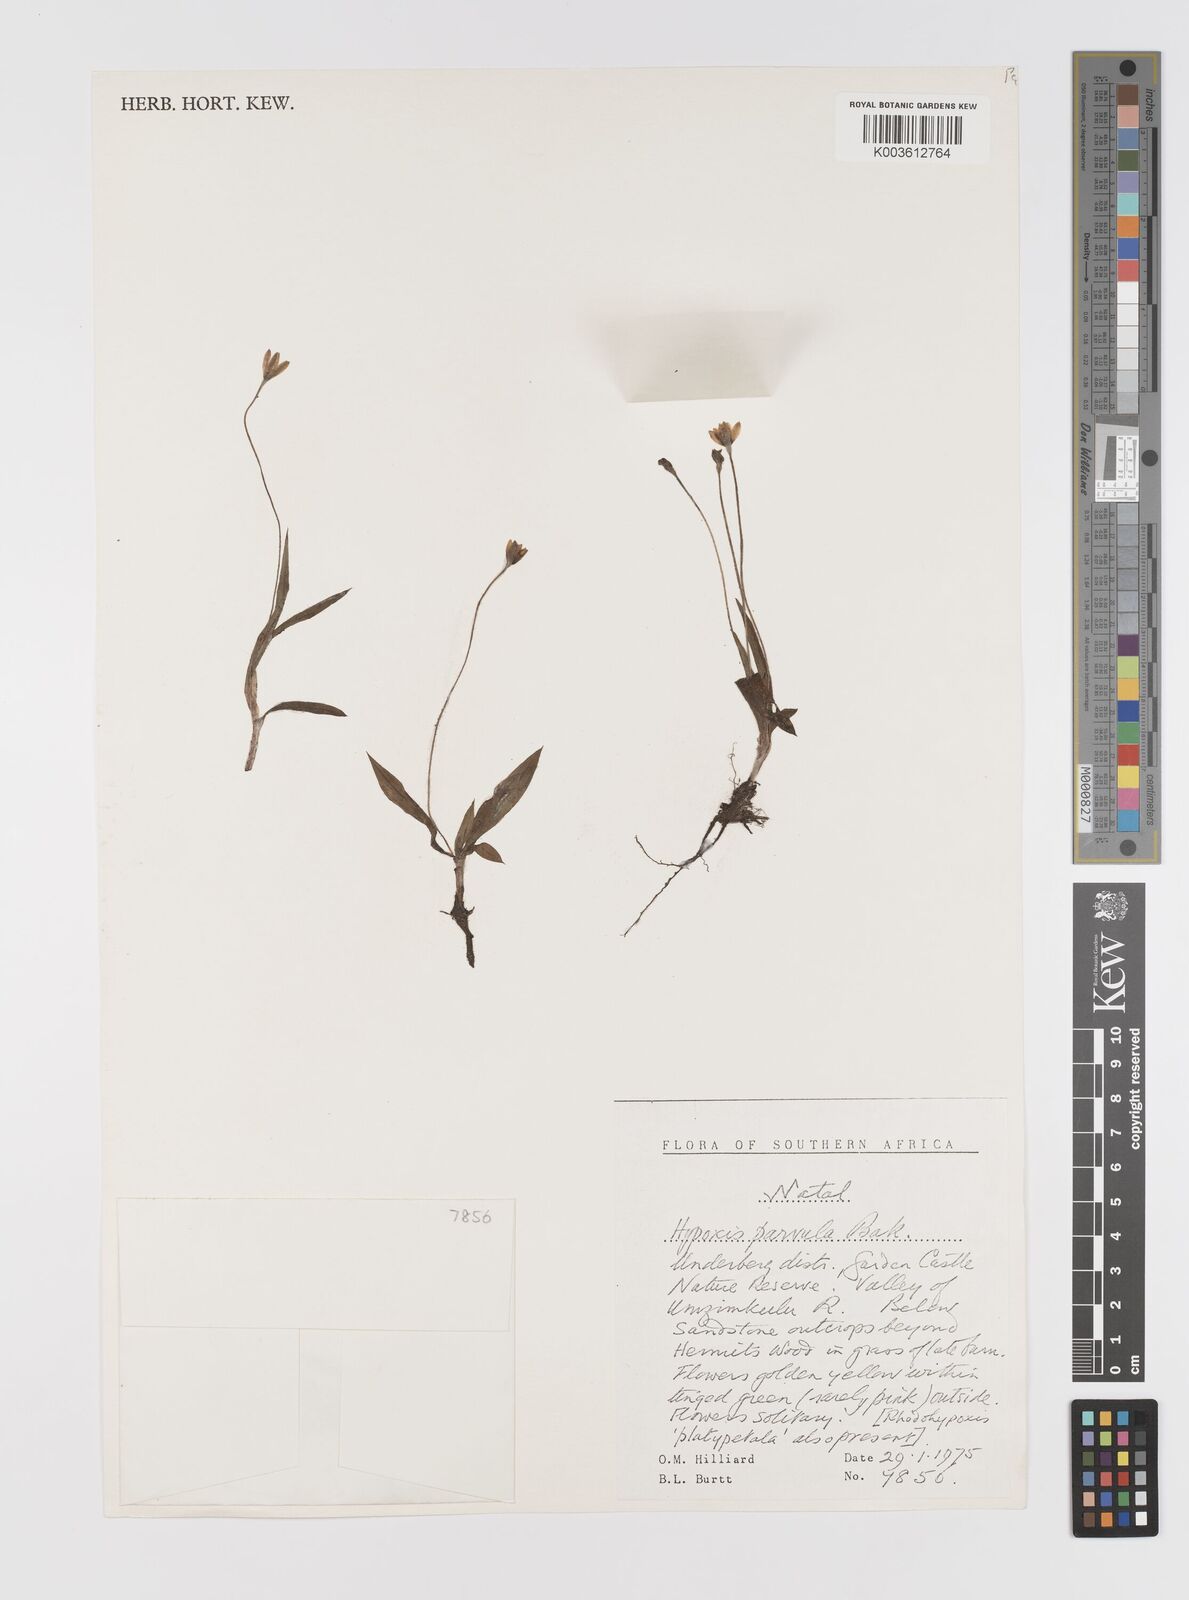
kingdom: Plantae
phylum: Tracheophyta
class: Liliopsida
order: Asparagales
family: Hypoxidaceae
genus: Hypoxis
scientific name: Hypoxis parvula
